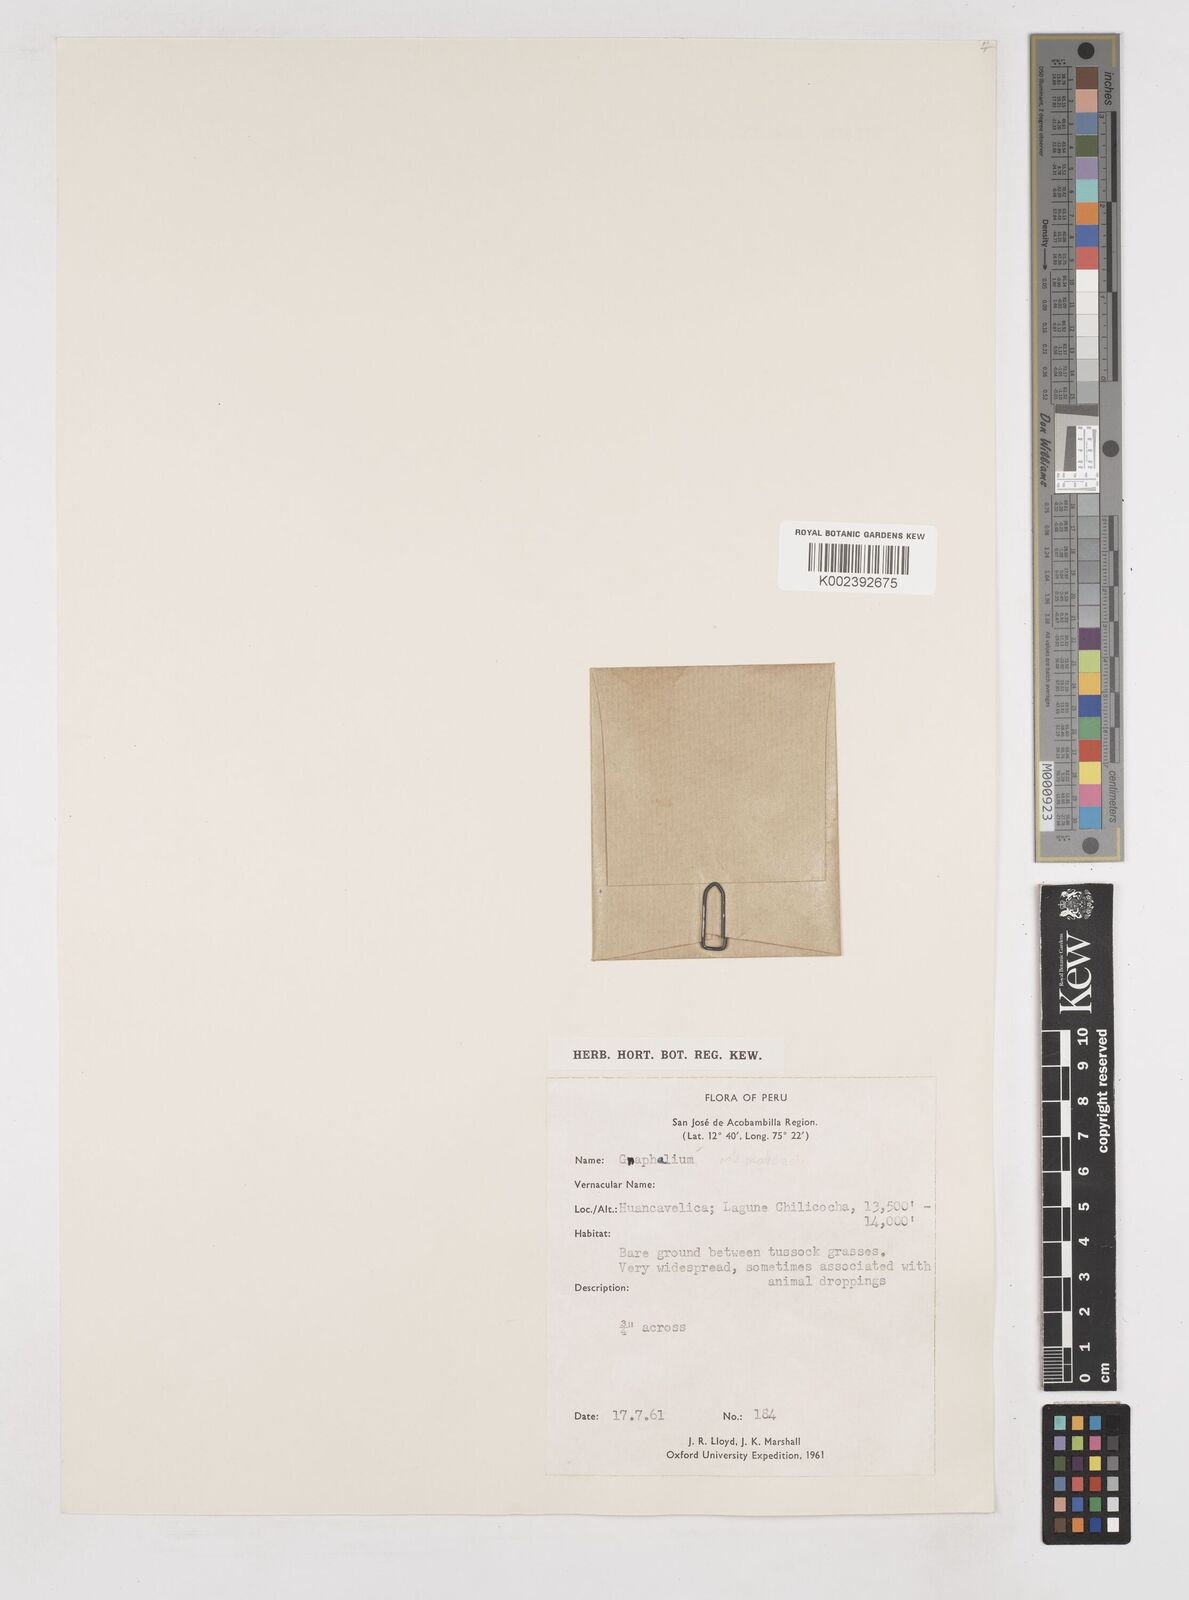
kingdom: Plantae
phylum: Tracheophyta
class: Magnoliopsida
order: Asterales
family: Asteraceae
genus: Gnaphalium
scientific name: Gnaphalium
